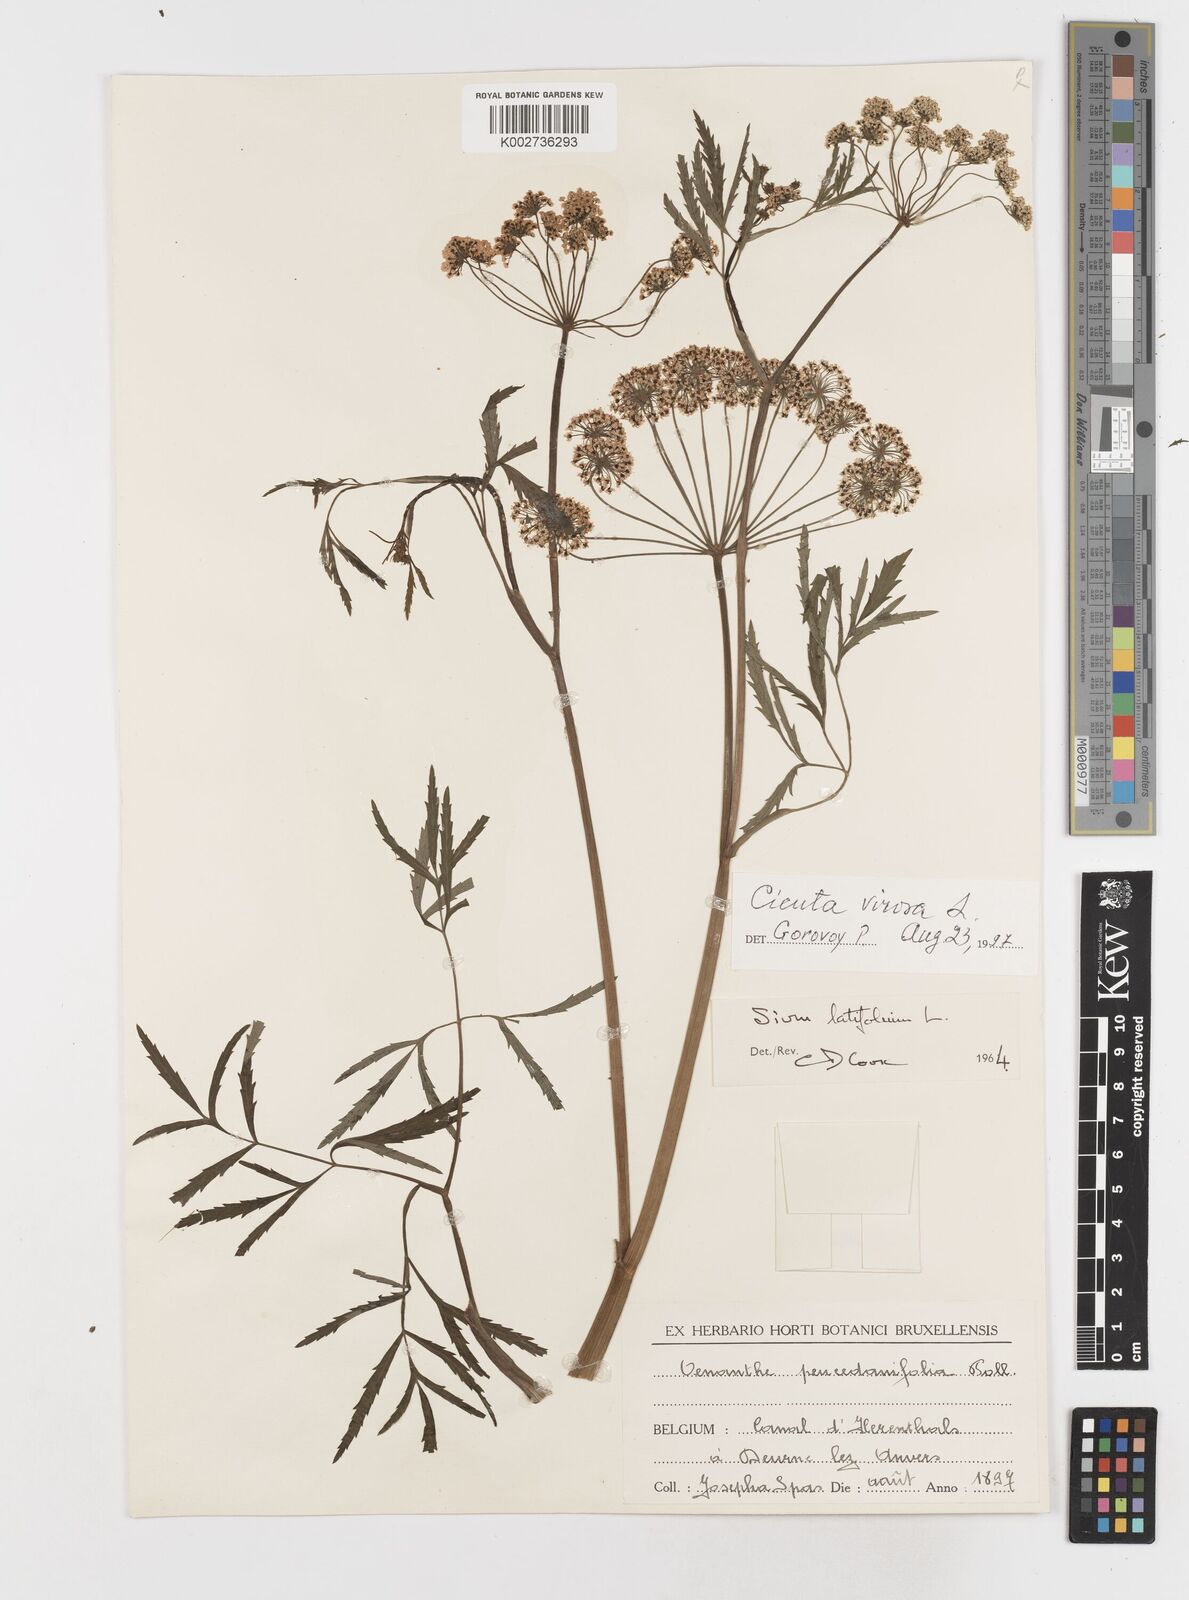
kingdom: Plantae
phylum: Tracheophyta
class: Magnoliopsida
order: Apiales
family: Apiaceae
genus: Sium
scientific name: Sium latifolium
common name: Greater water-parsnip
